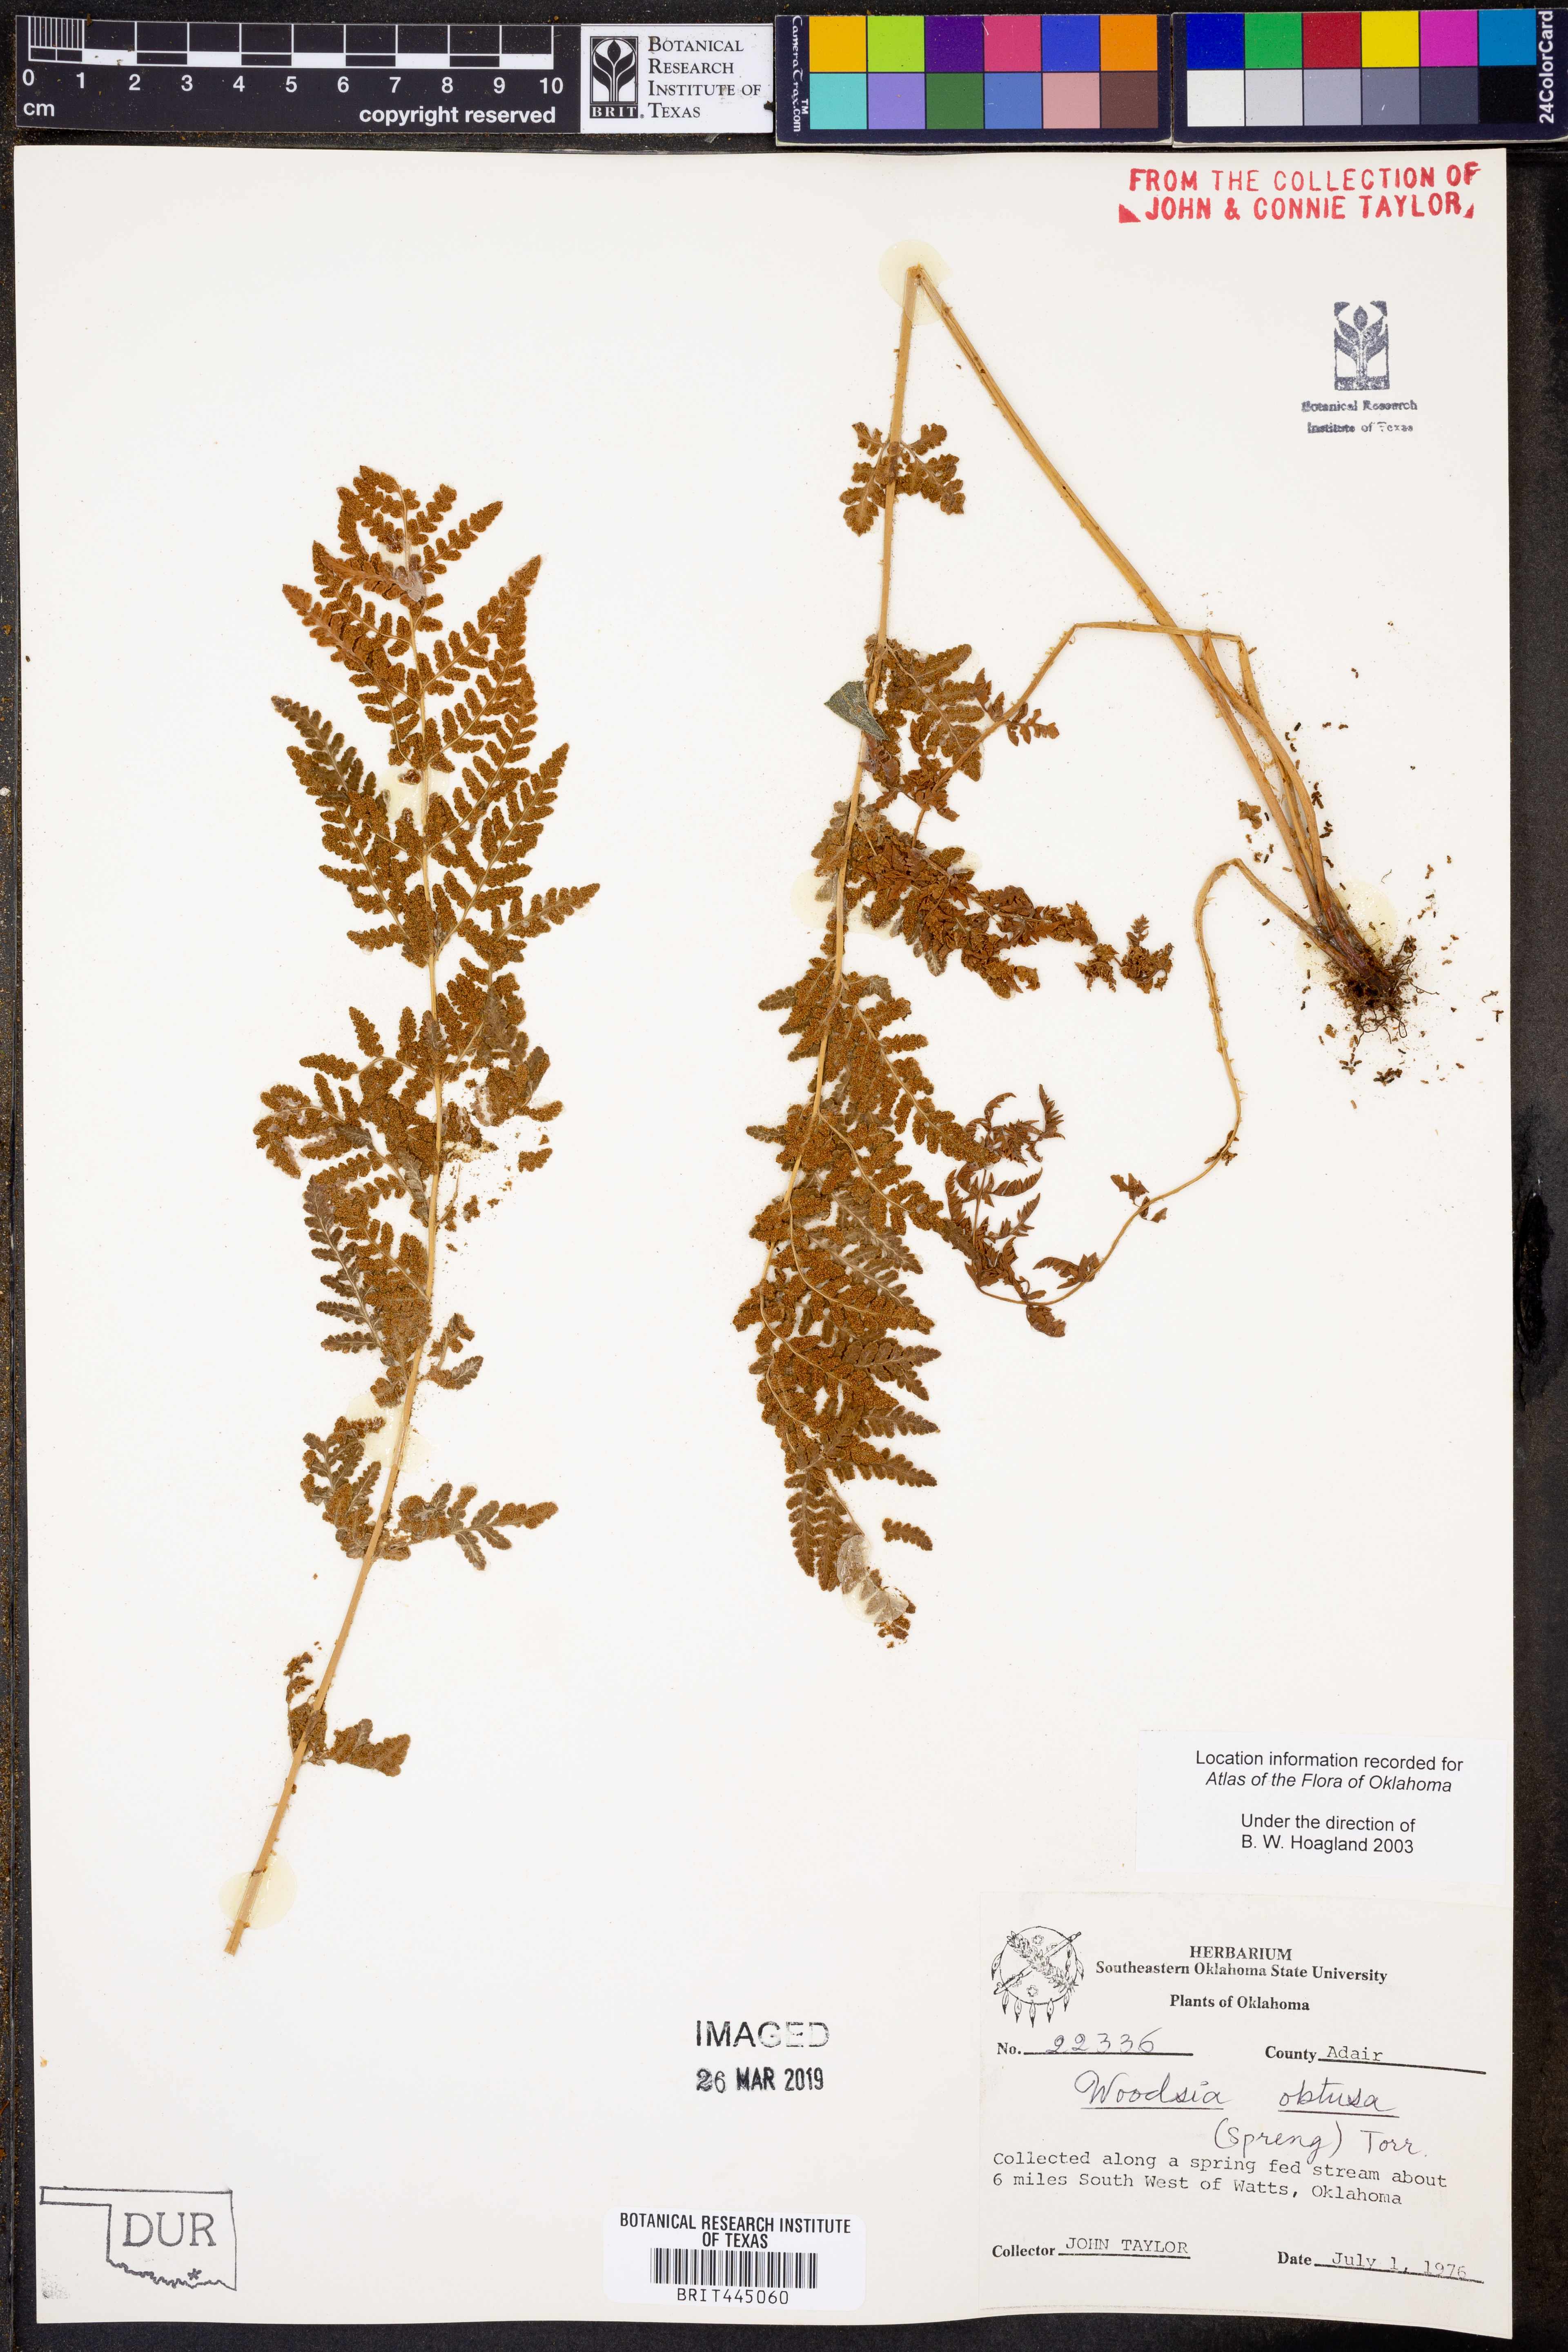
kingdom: Plantae
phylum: Tracheophyta
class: Polypodiopsida
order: Polypodiales
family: Woodsiaceae
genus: Physematium
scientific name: Physematium obtusum
